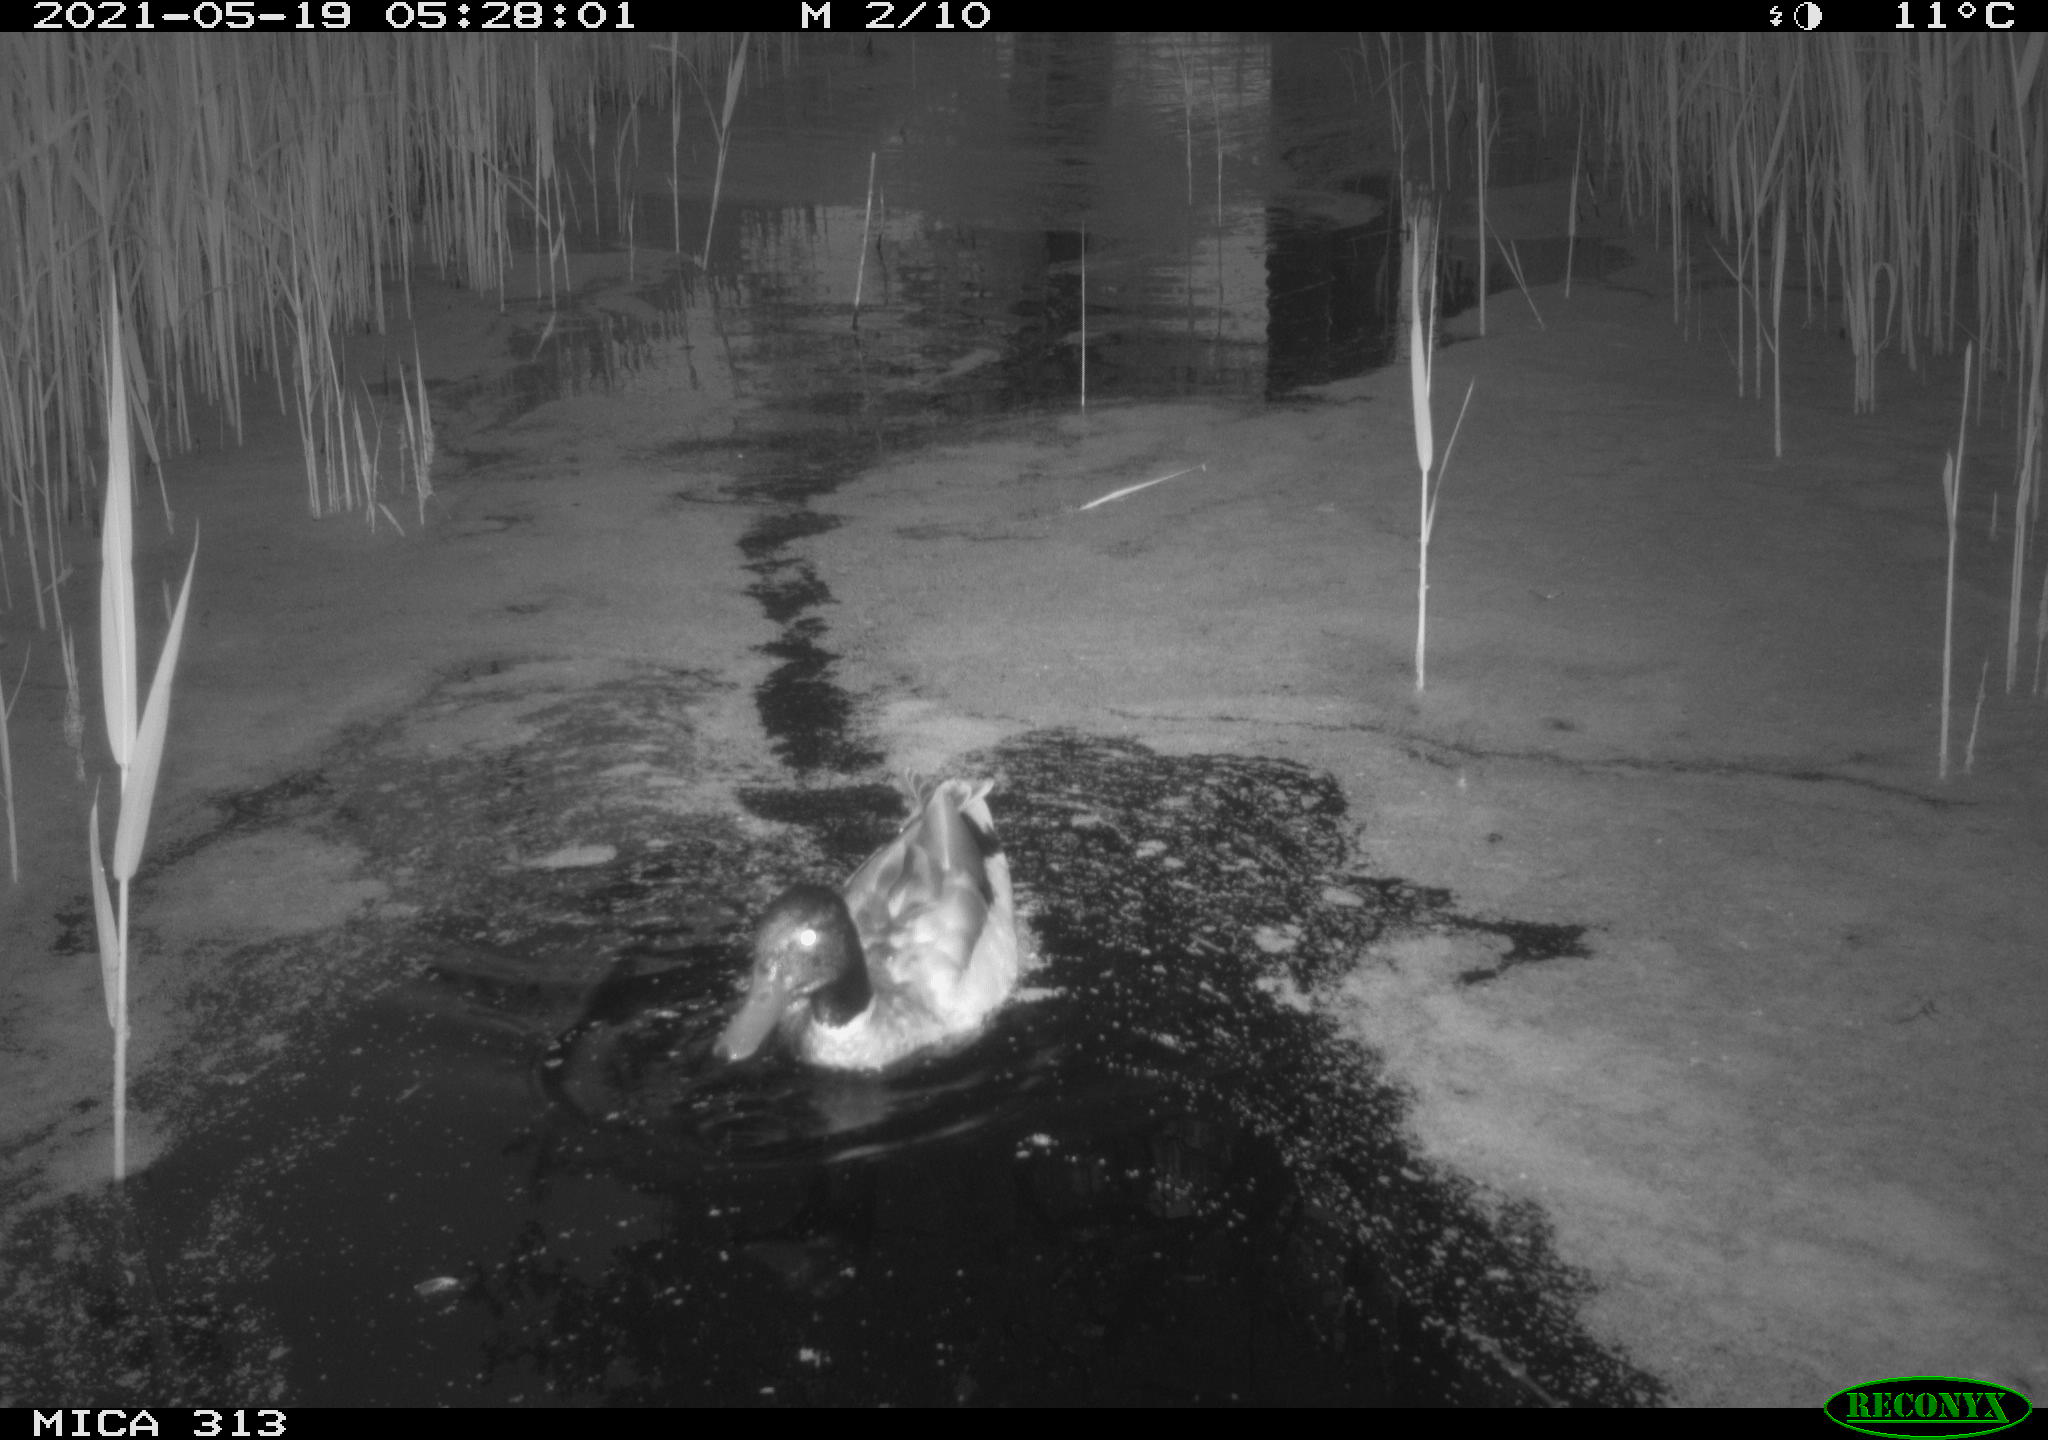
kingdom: Animalia
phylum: Chordata
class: Aves
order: Anseriformes
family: Anatidae
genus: Anas
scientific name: Anas platyrhynchos
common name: Mallard
